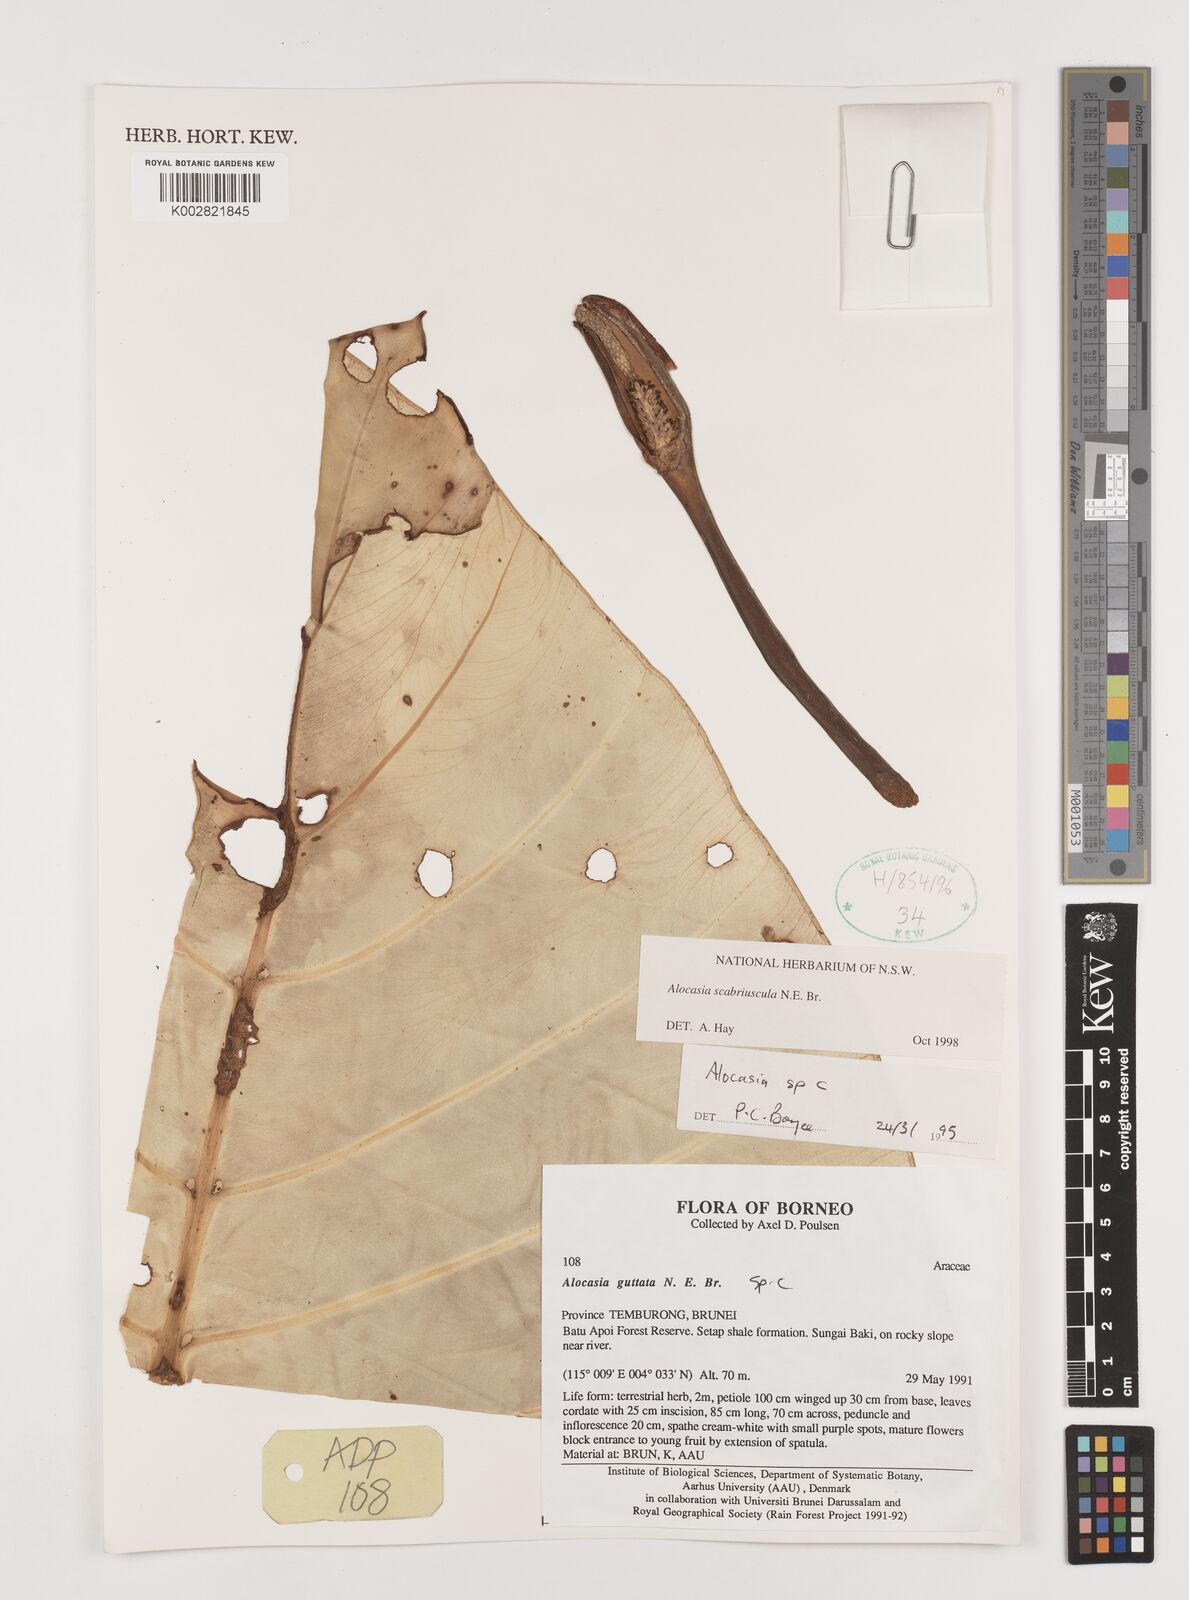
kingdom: Plantae
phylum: Tracheophyta
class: Liliopsida
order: Alismatales
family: Araceae
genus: Alocasia
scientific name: Alocasia scabriuscula
